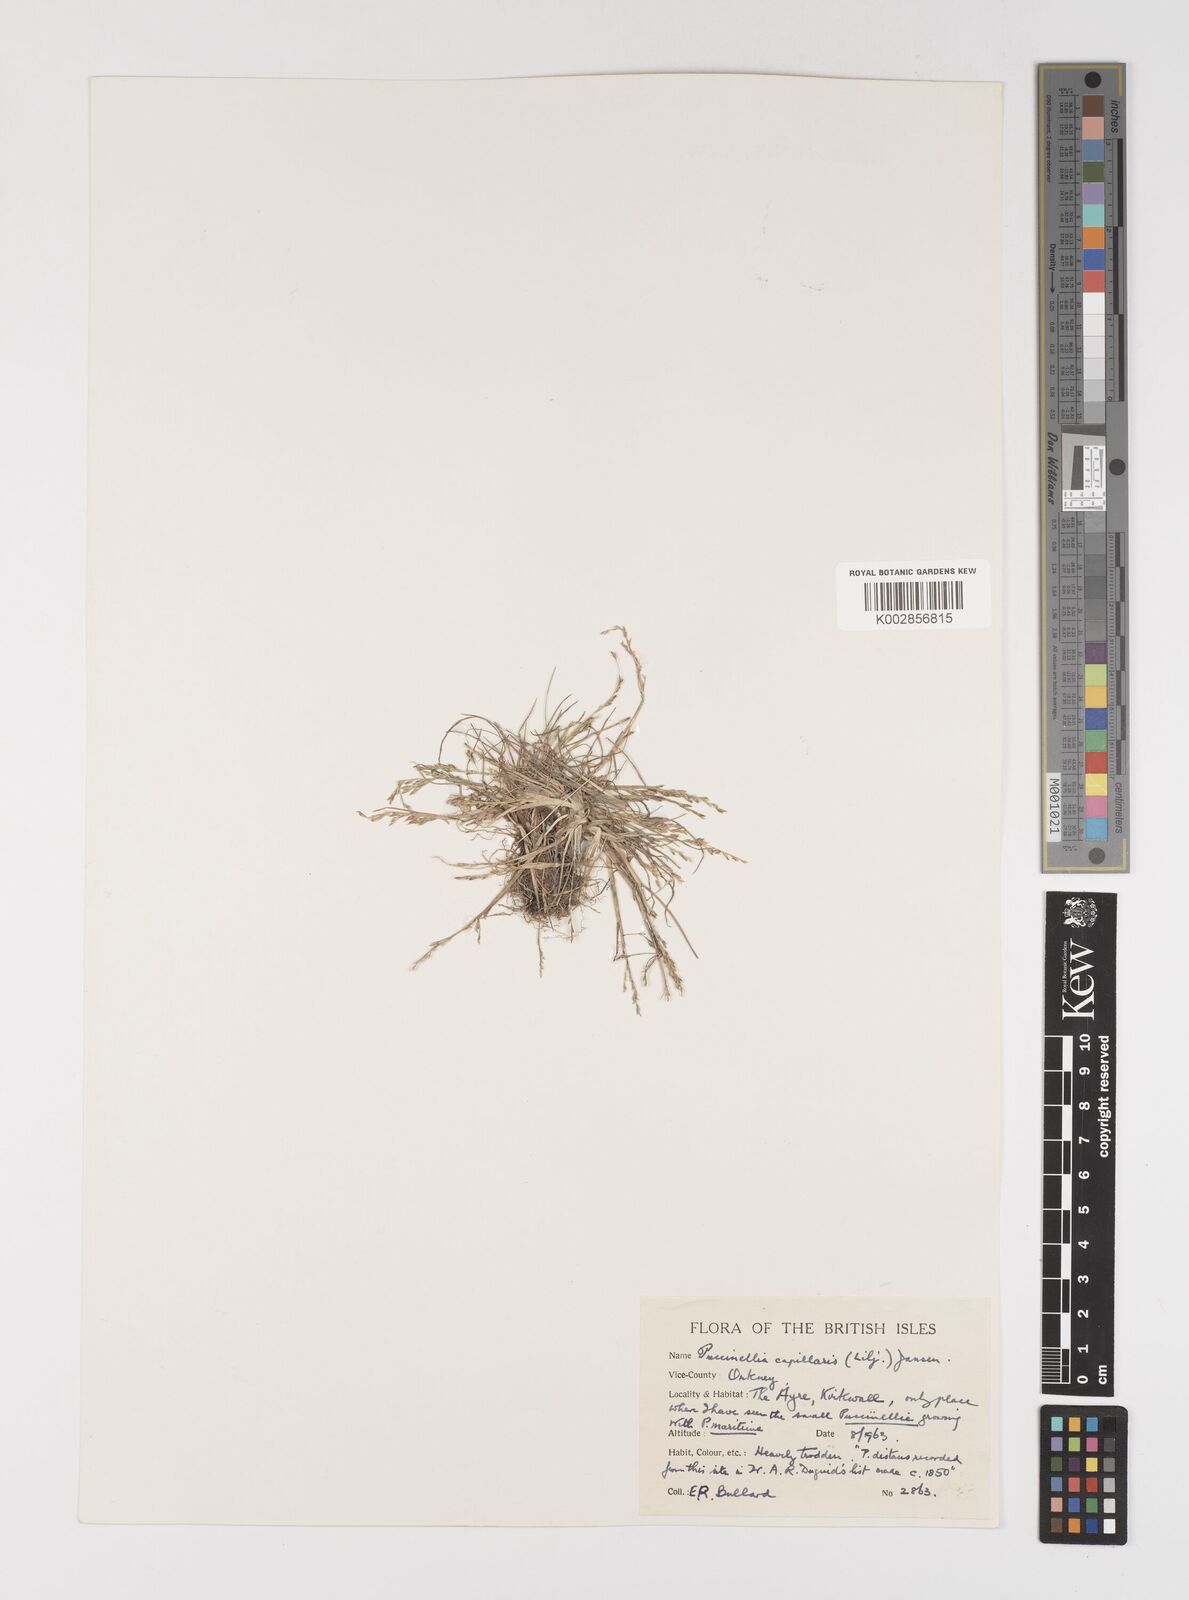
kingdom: Plantae
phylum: Tracheophyta
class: Liliopsida
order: Poales
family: Poaceae
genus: Puccinellia
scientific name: Puccinellia distans
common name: Weeping alkaligrass
